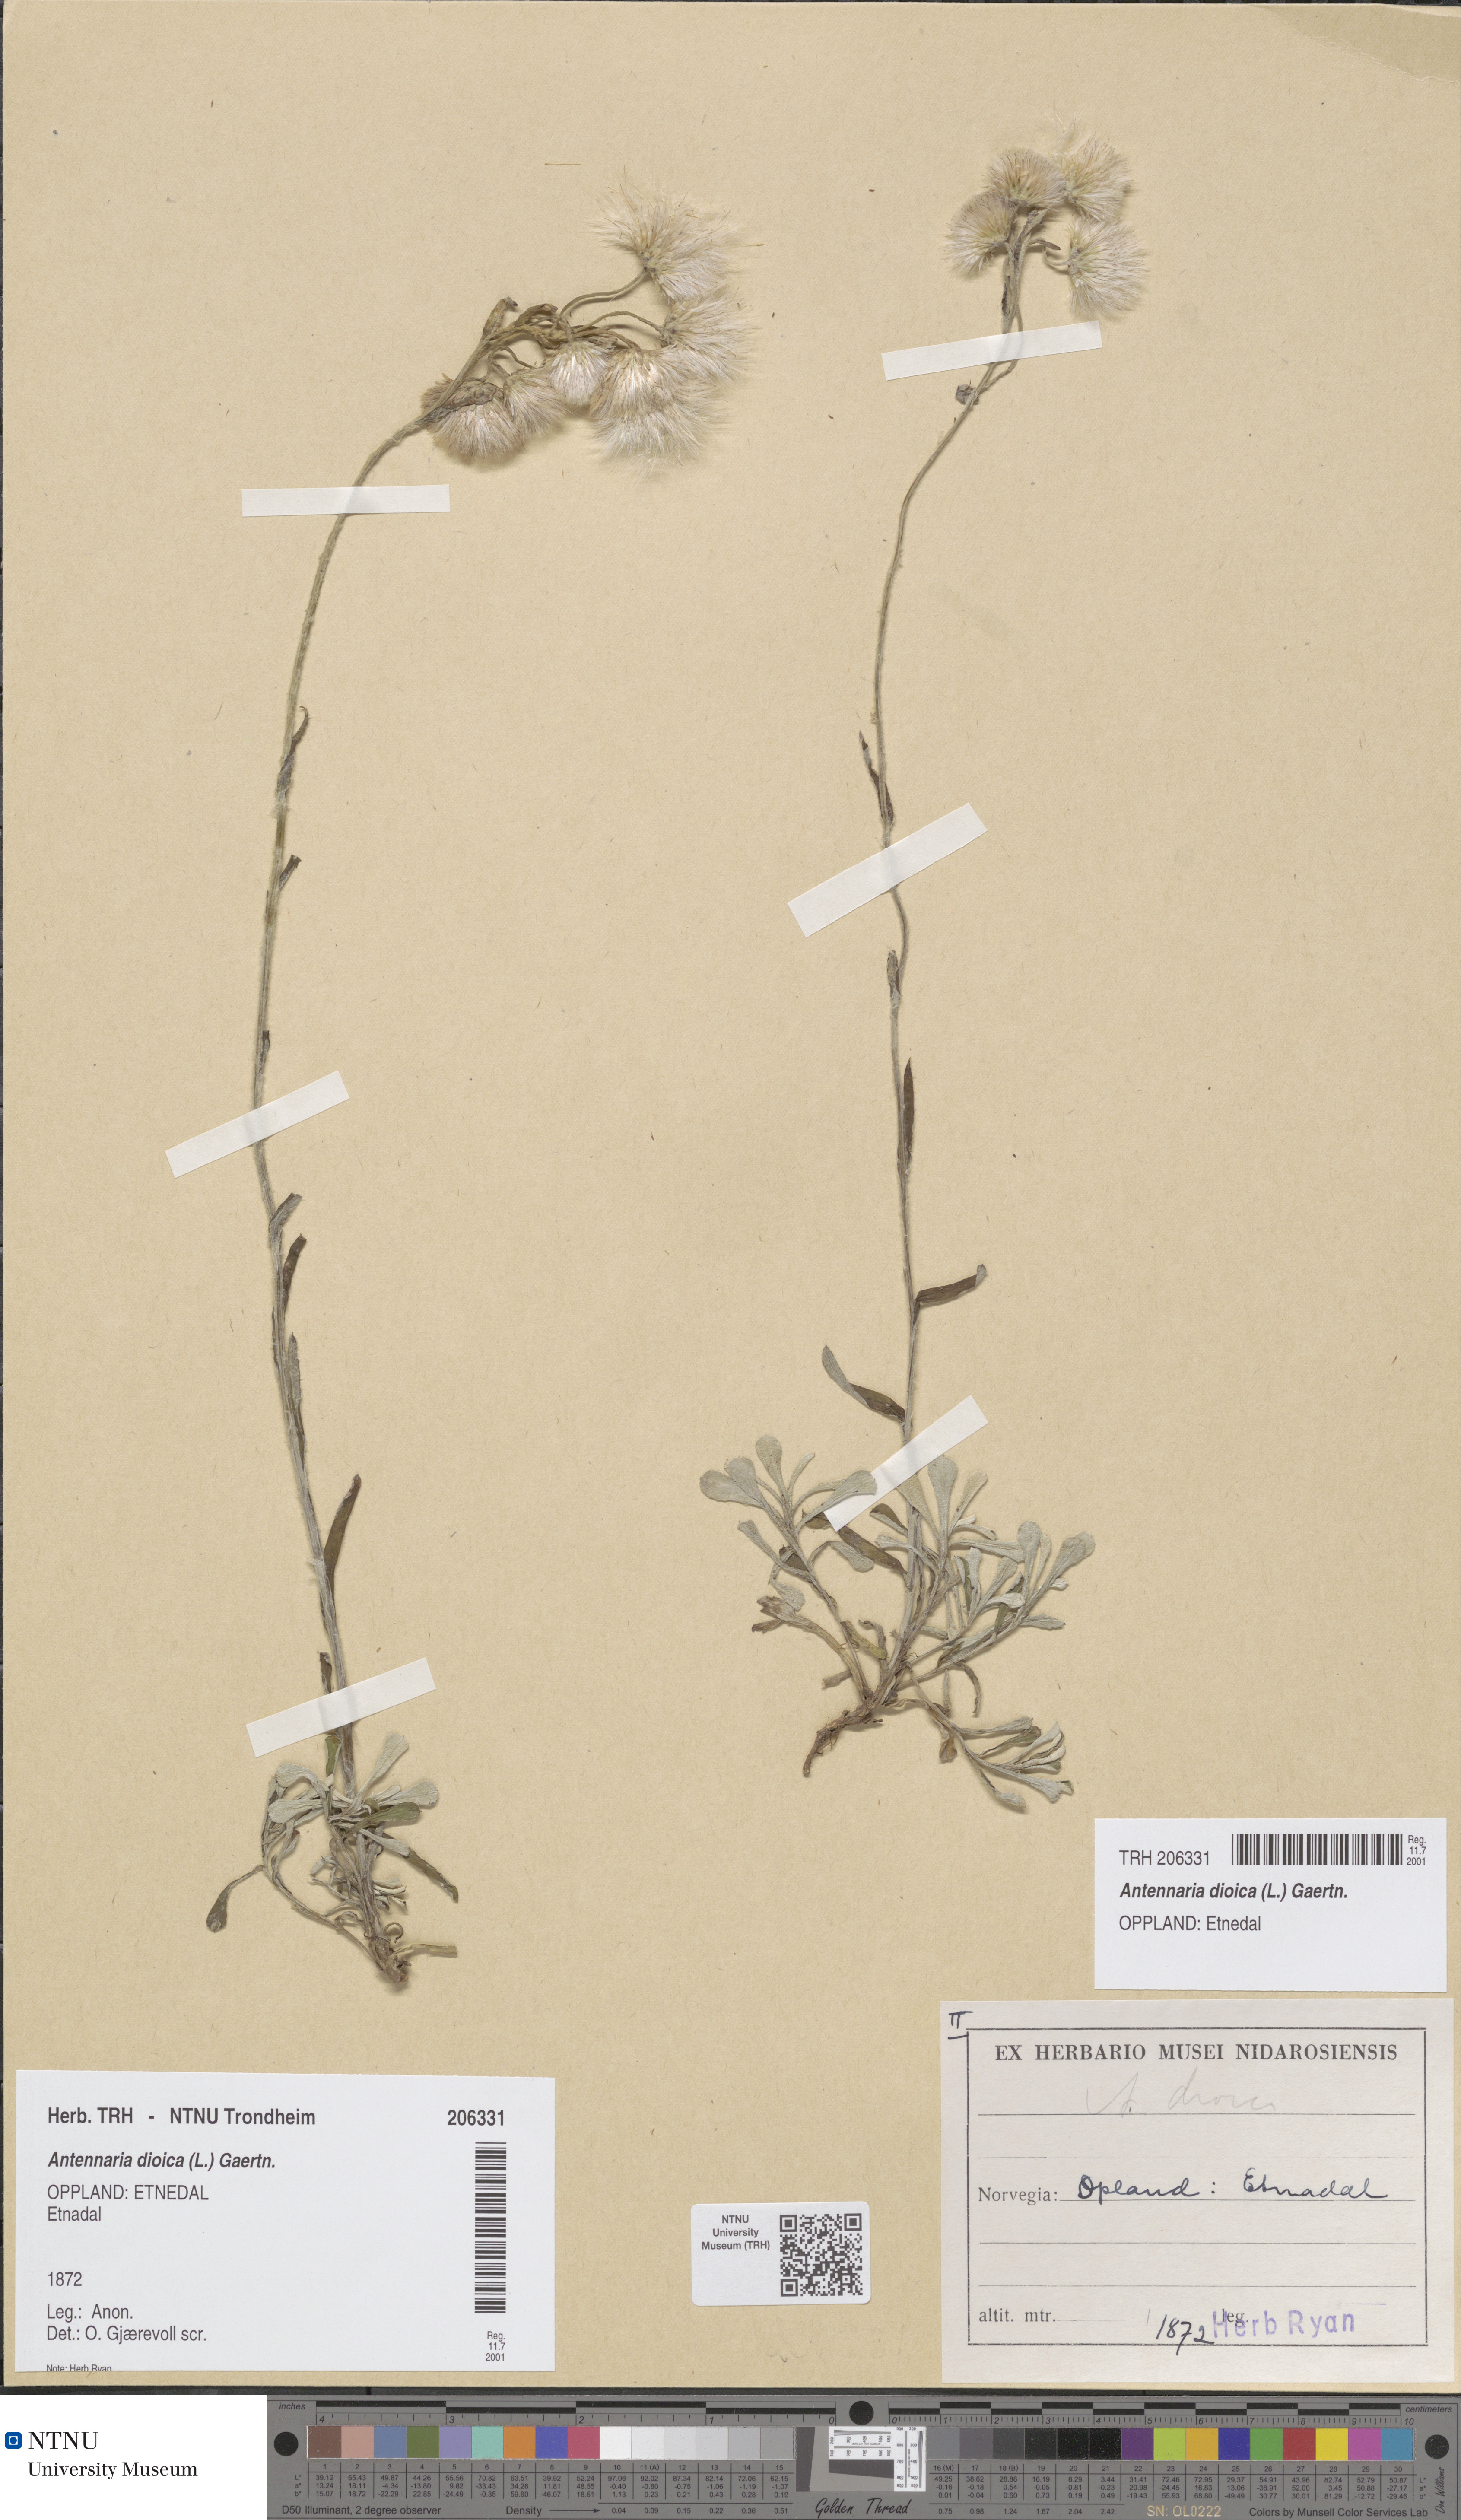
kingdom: Plantae
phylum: Tracheophyta
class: Magnoliopsida
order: Asterales
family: Asteraceae
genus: Antennaria
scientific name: Antennaria dioica
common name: Mountain everlasting
